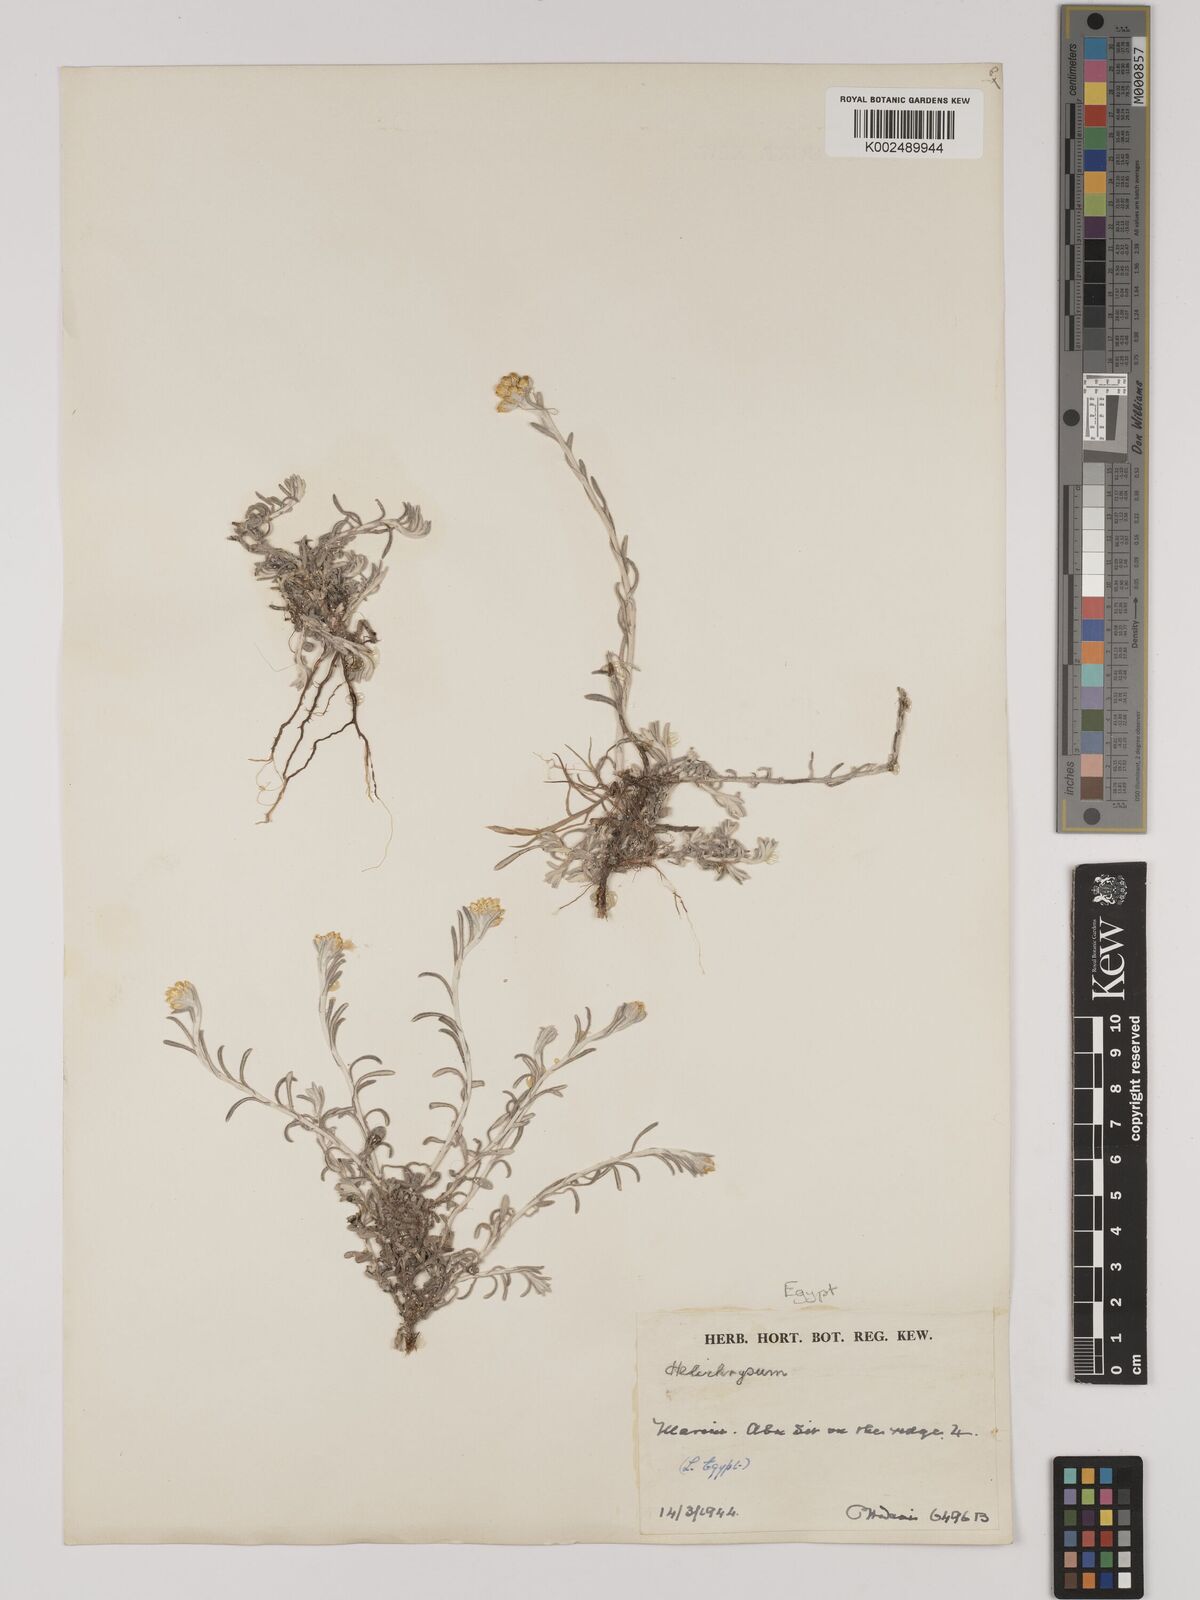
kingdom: Plantae
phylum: Tracheophyta
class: Magnoliopsida
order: Asterales
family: Asteraceae
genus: Helichrysum
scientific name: Helichrysum stoechas
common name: Goldilocks
